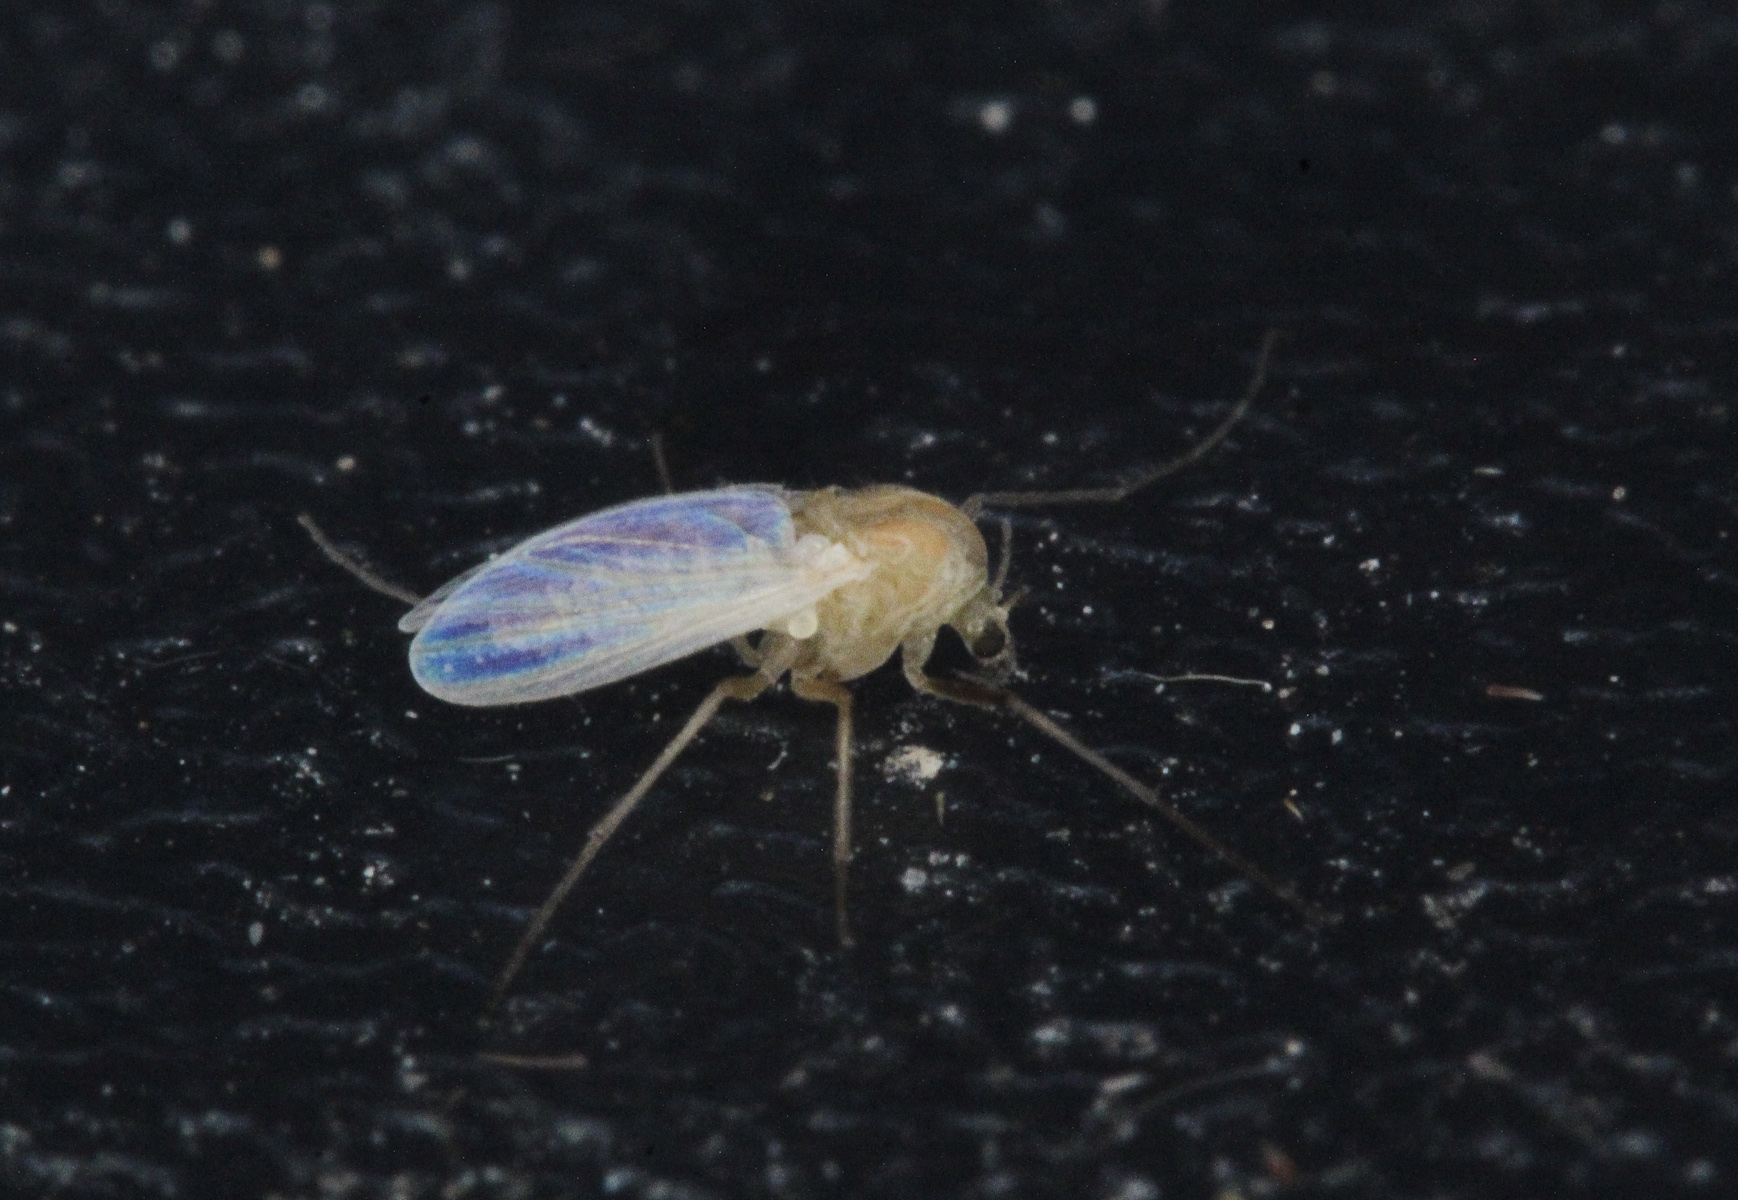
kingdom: Animalia
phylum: Arthropoda
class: Insecta
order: Diptera
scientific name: Diptera
